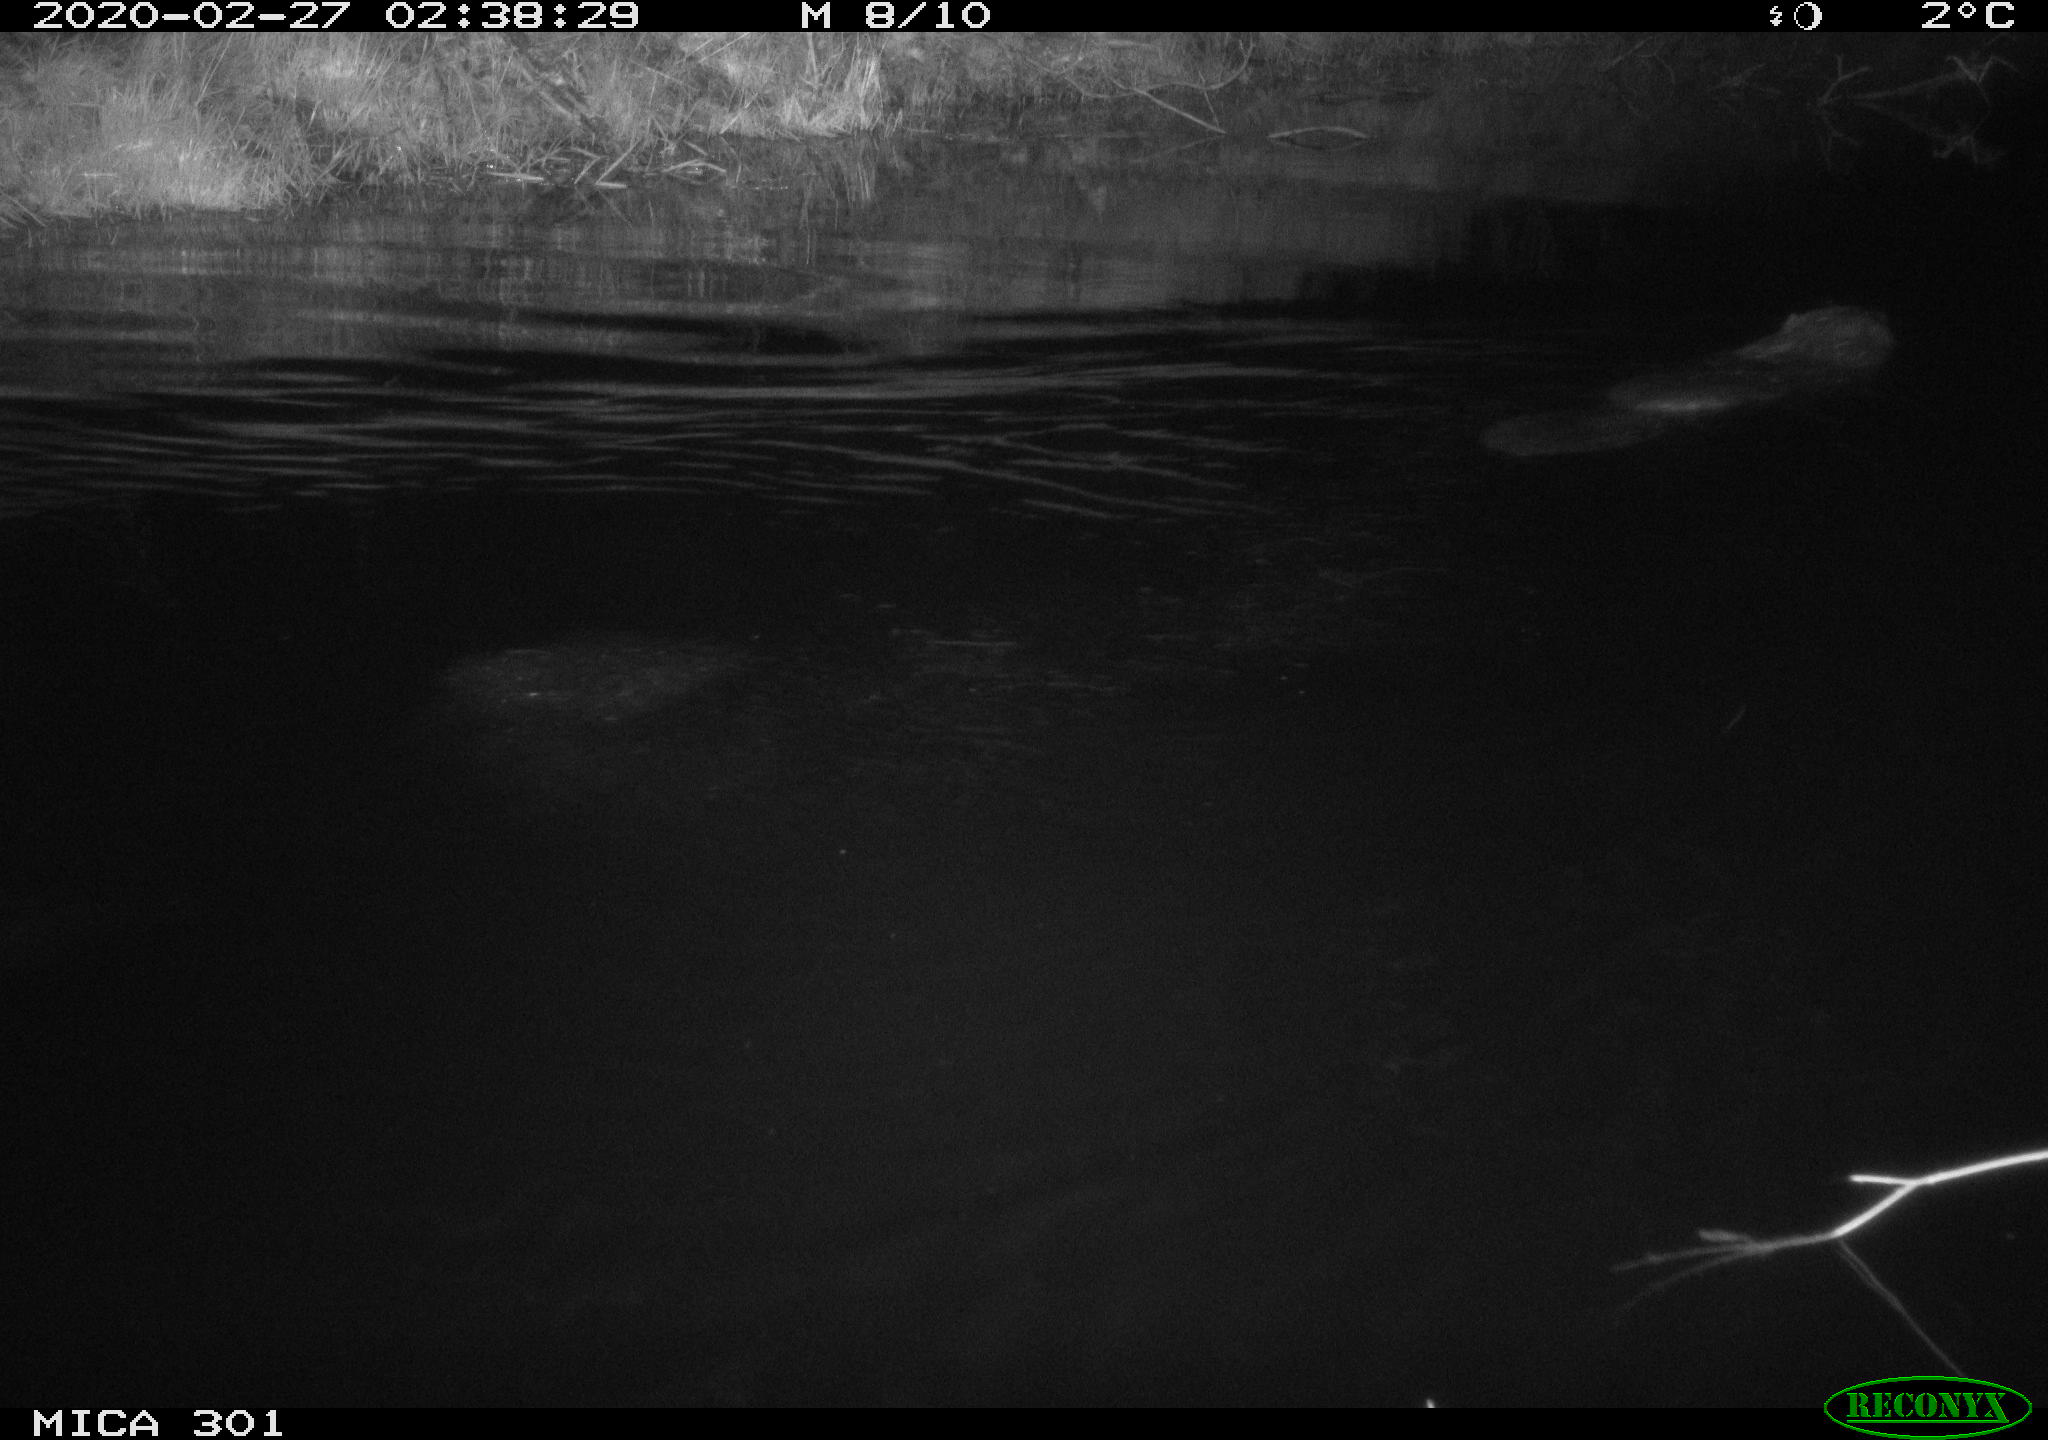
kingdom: Animalia
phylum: Chordata
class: Mammalia
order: Rodentia
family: Castoridae
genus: Castor
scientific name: Castor fiber
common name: Eurasian beaver
